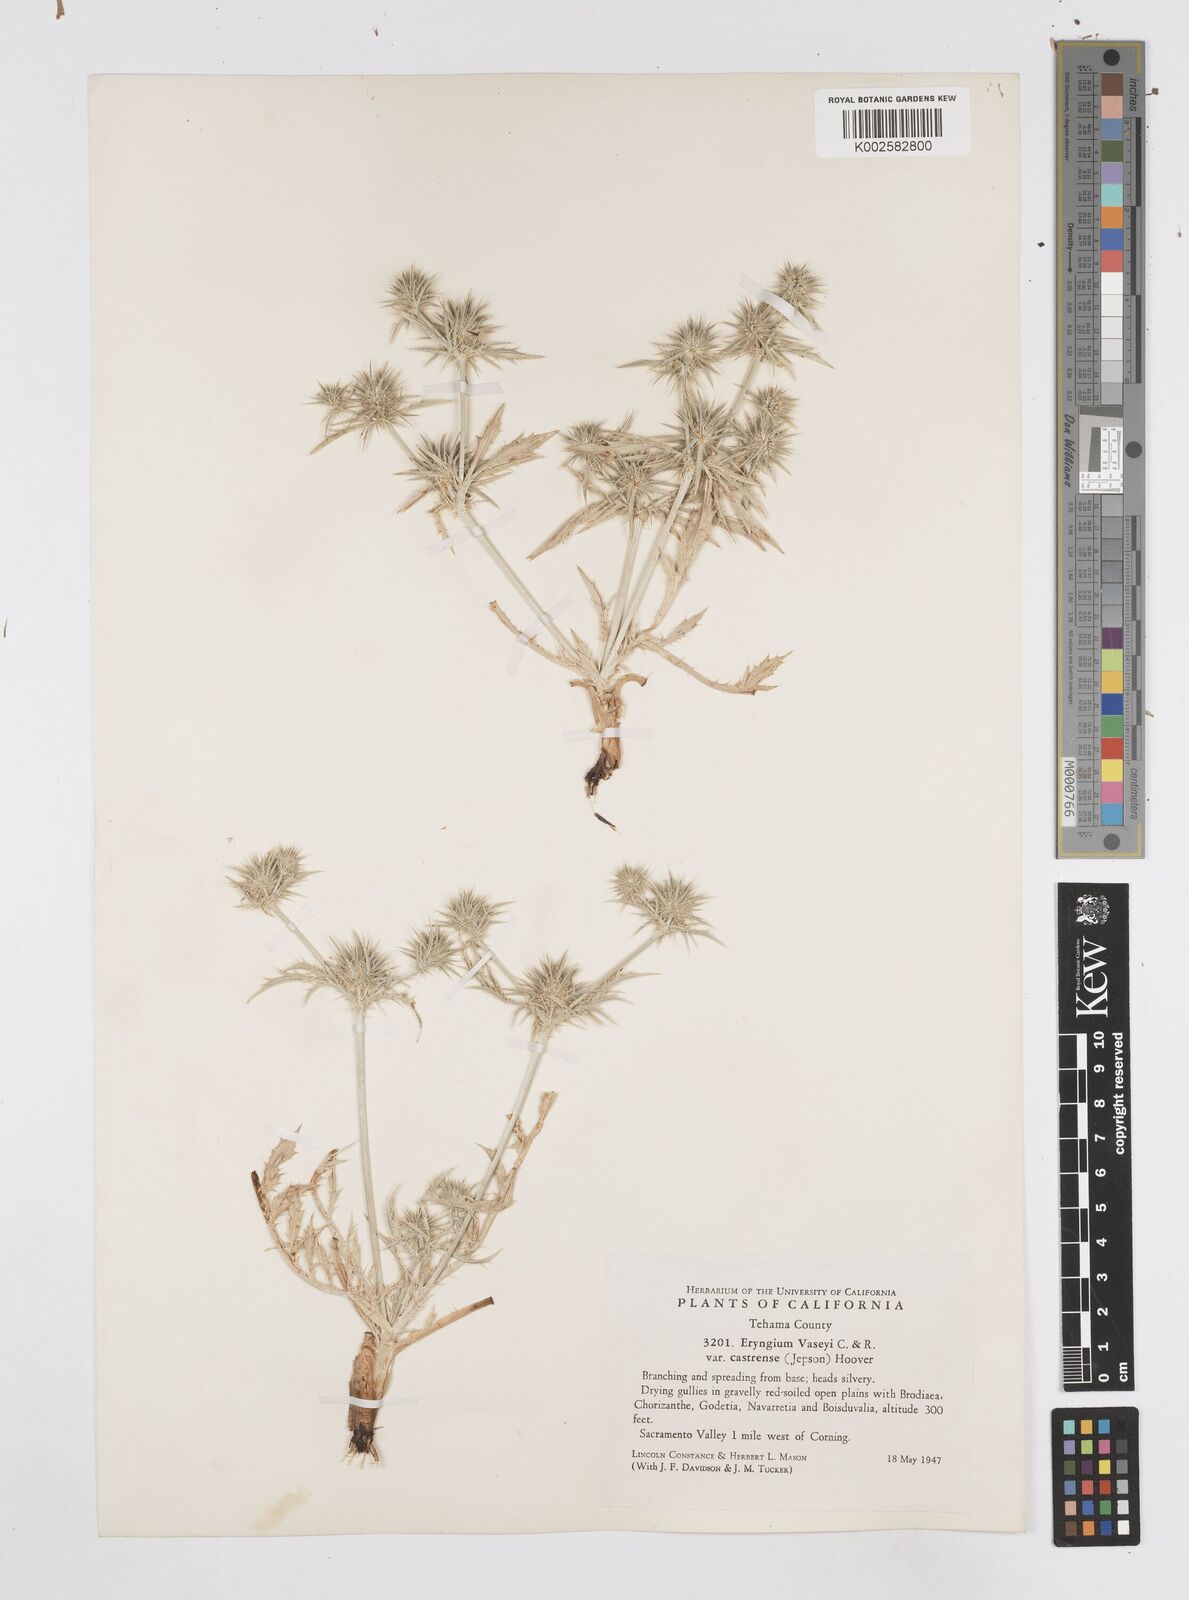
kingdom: Plantae
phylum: Tracheophyta
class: Magnoliopsida
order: Apiales
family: Apiaceae
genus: Eryngium
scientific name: Eryngium castrense
